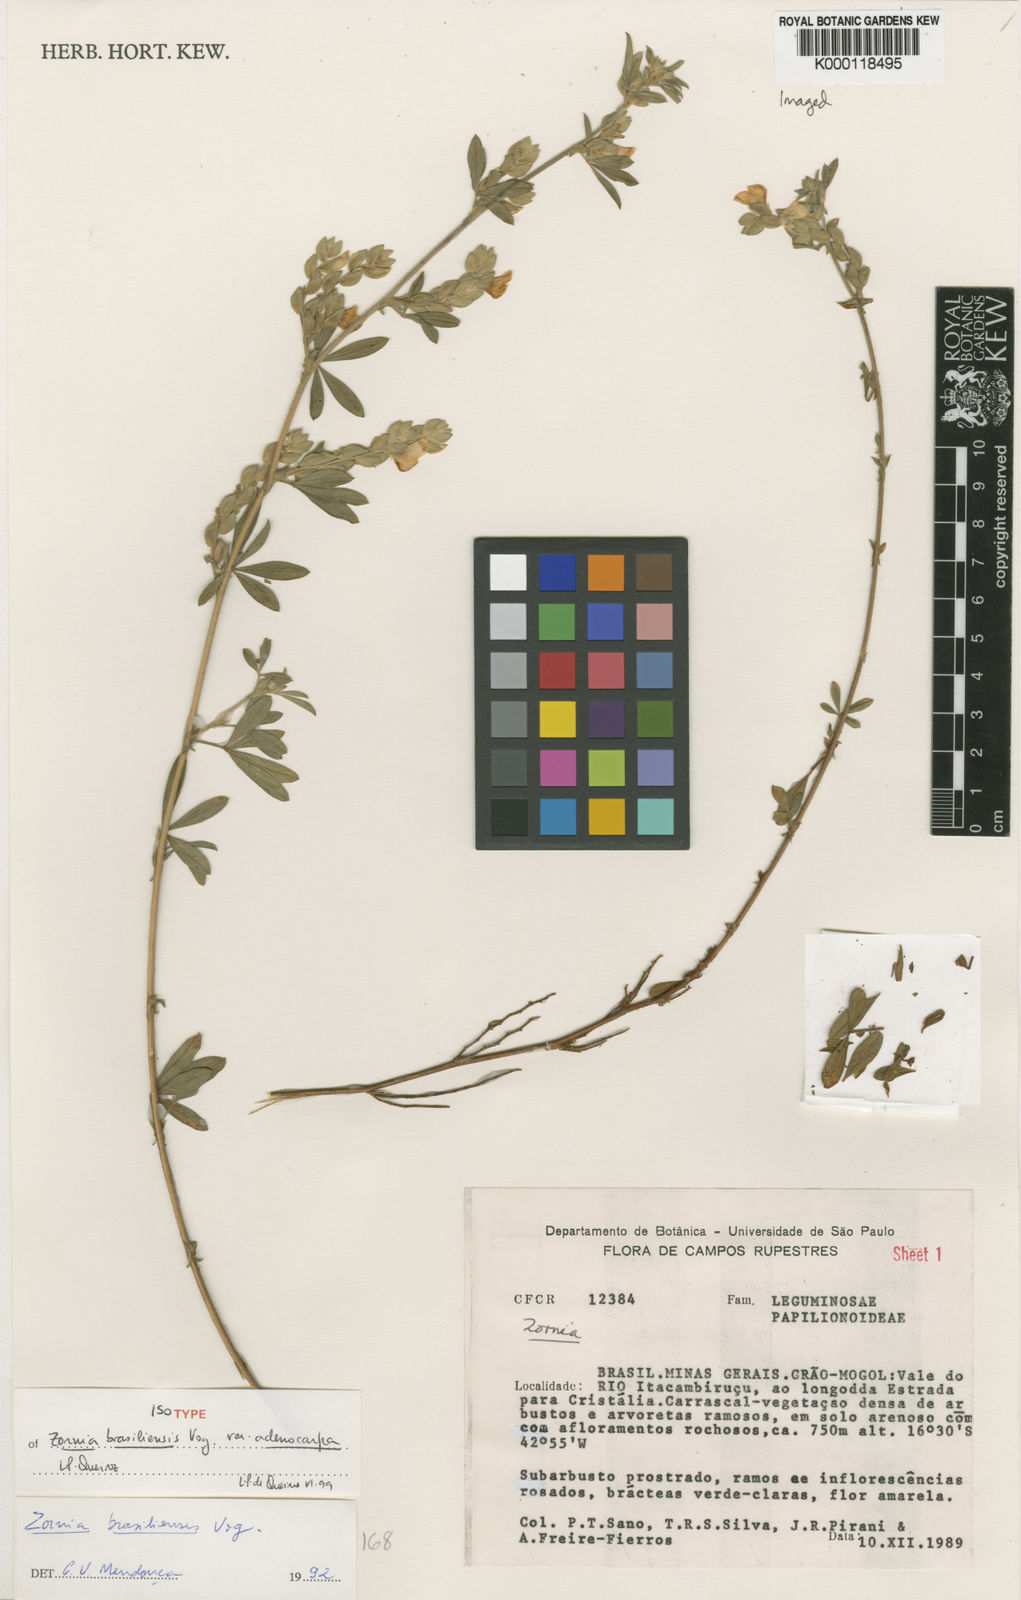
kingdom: Plantae
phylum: Tracheophyta
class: Magnoliopsida
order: Fabales
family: Fabaceae
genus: Zornia
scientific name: Zornia brasiliensis
